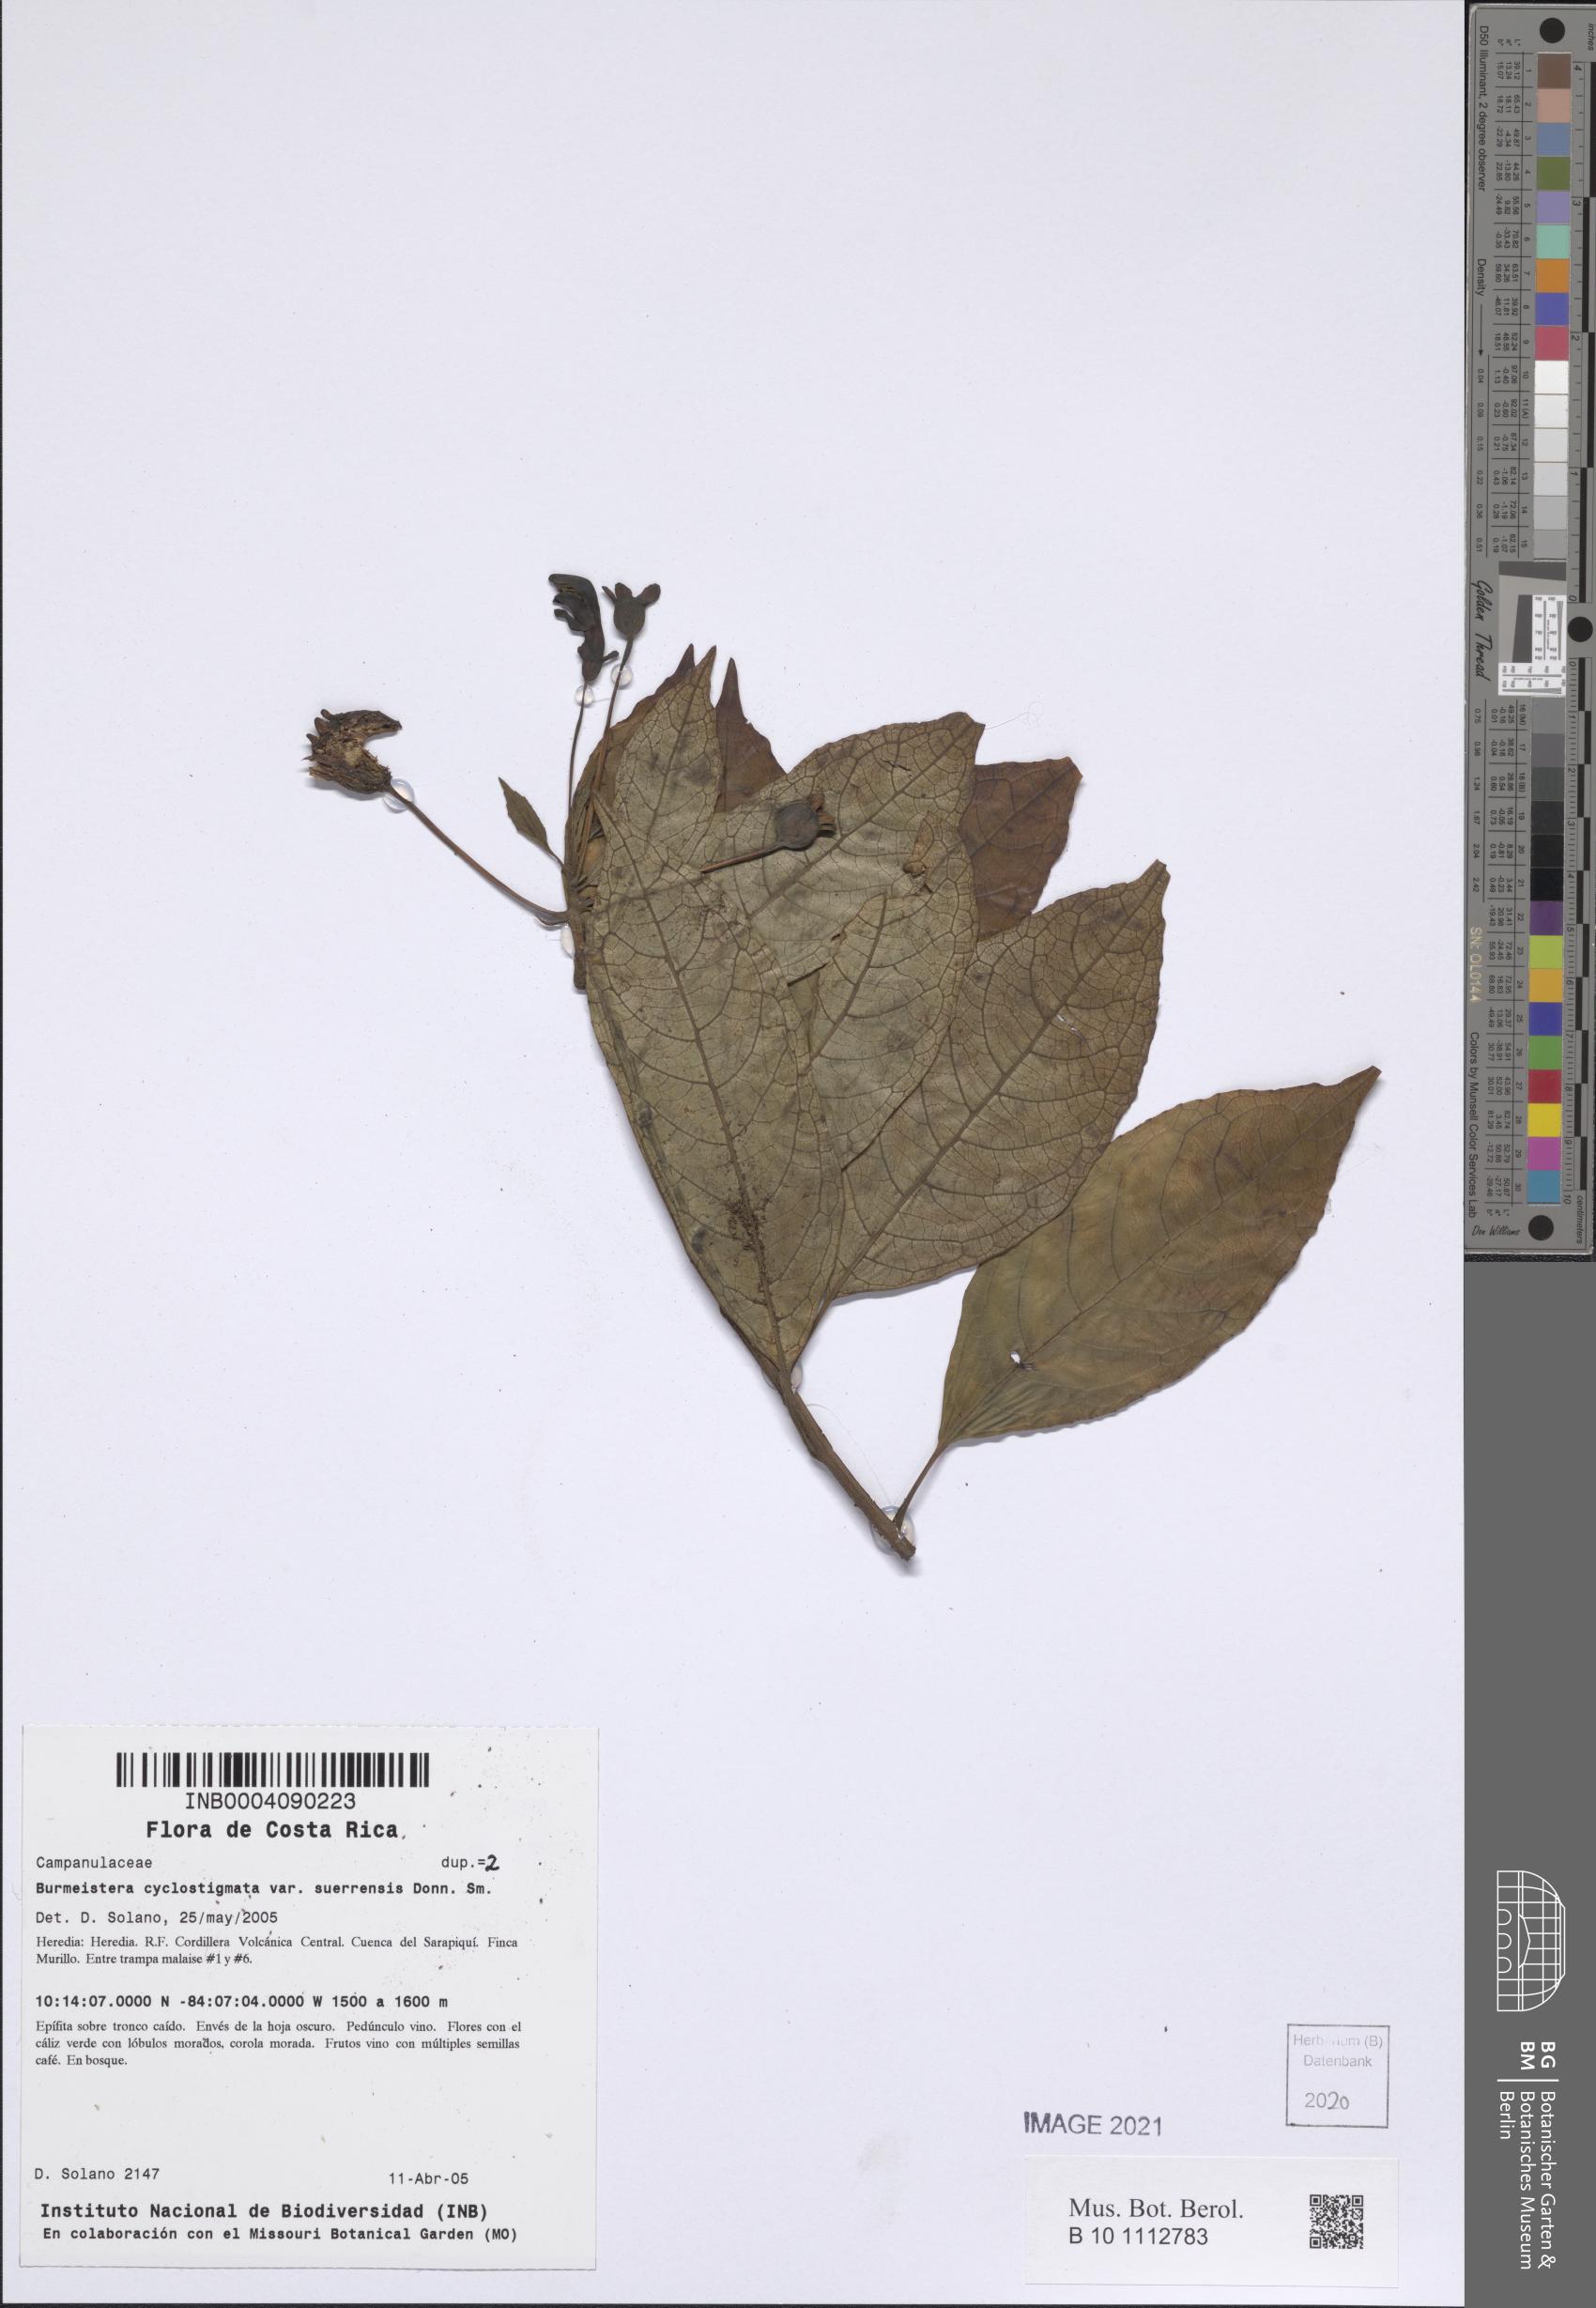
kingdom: Plantae
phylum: Tracheophyta
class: Magnoliopsida
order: Asterales
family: Campanulaceae
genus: Burmeistera
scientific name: Burmeistera cyclostigmata
